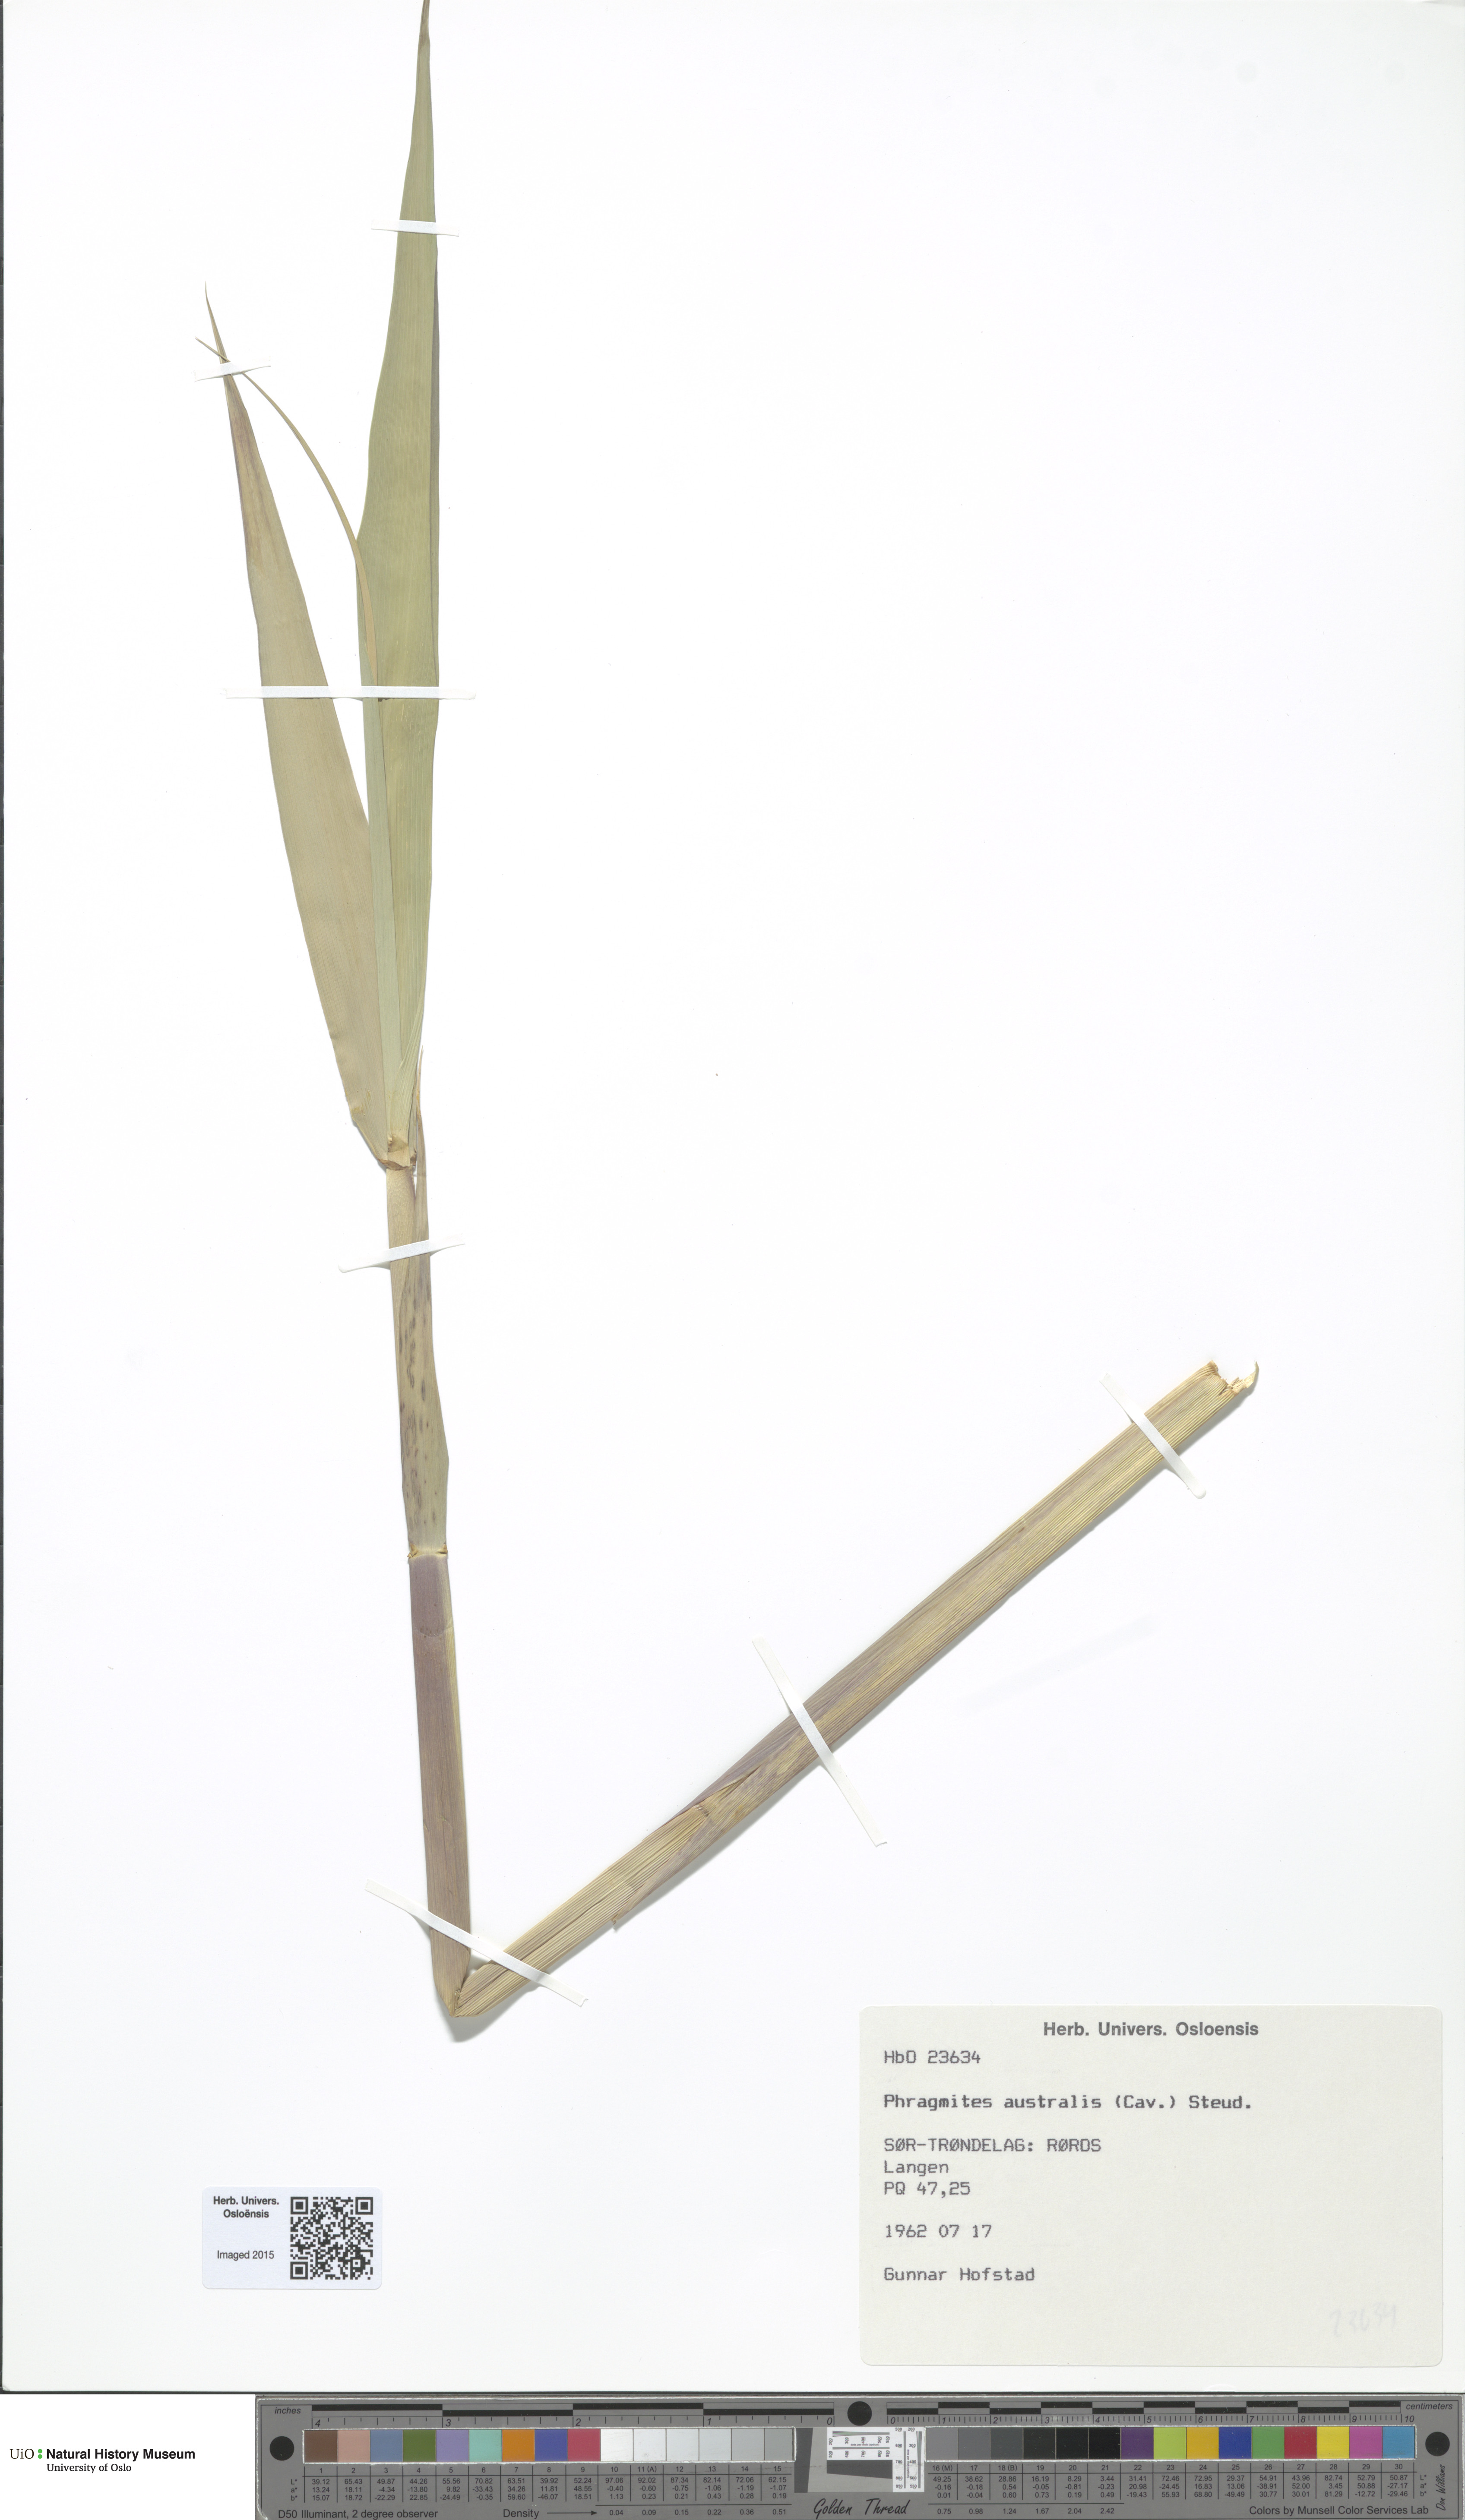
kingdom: Plantae
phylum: Tracheophyta
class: Liliopsida
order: Poales
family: Poaceae
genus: Phragmites
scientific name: Phragmites australis
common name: Common reed
